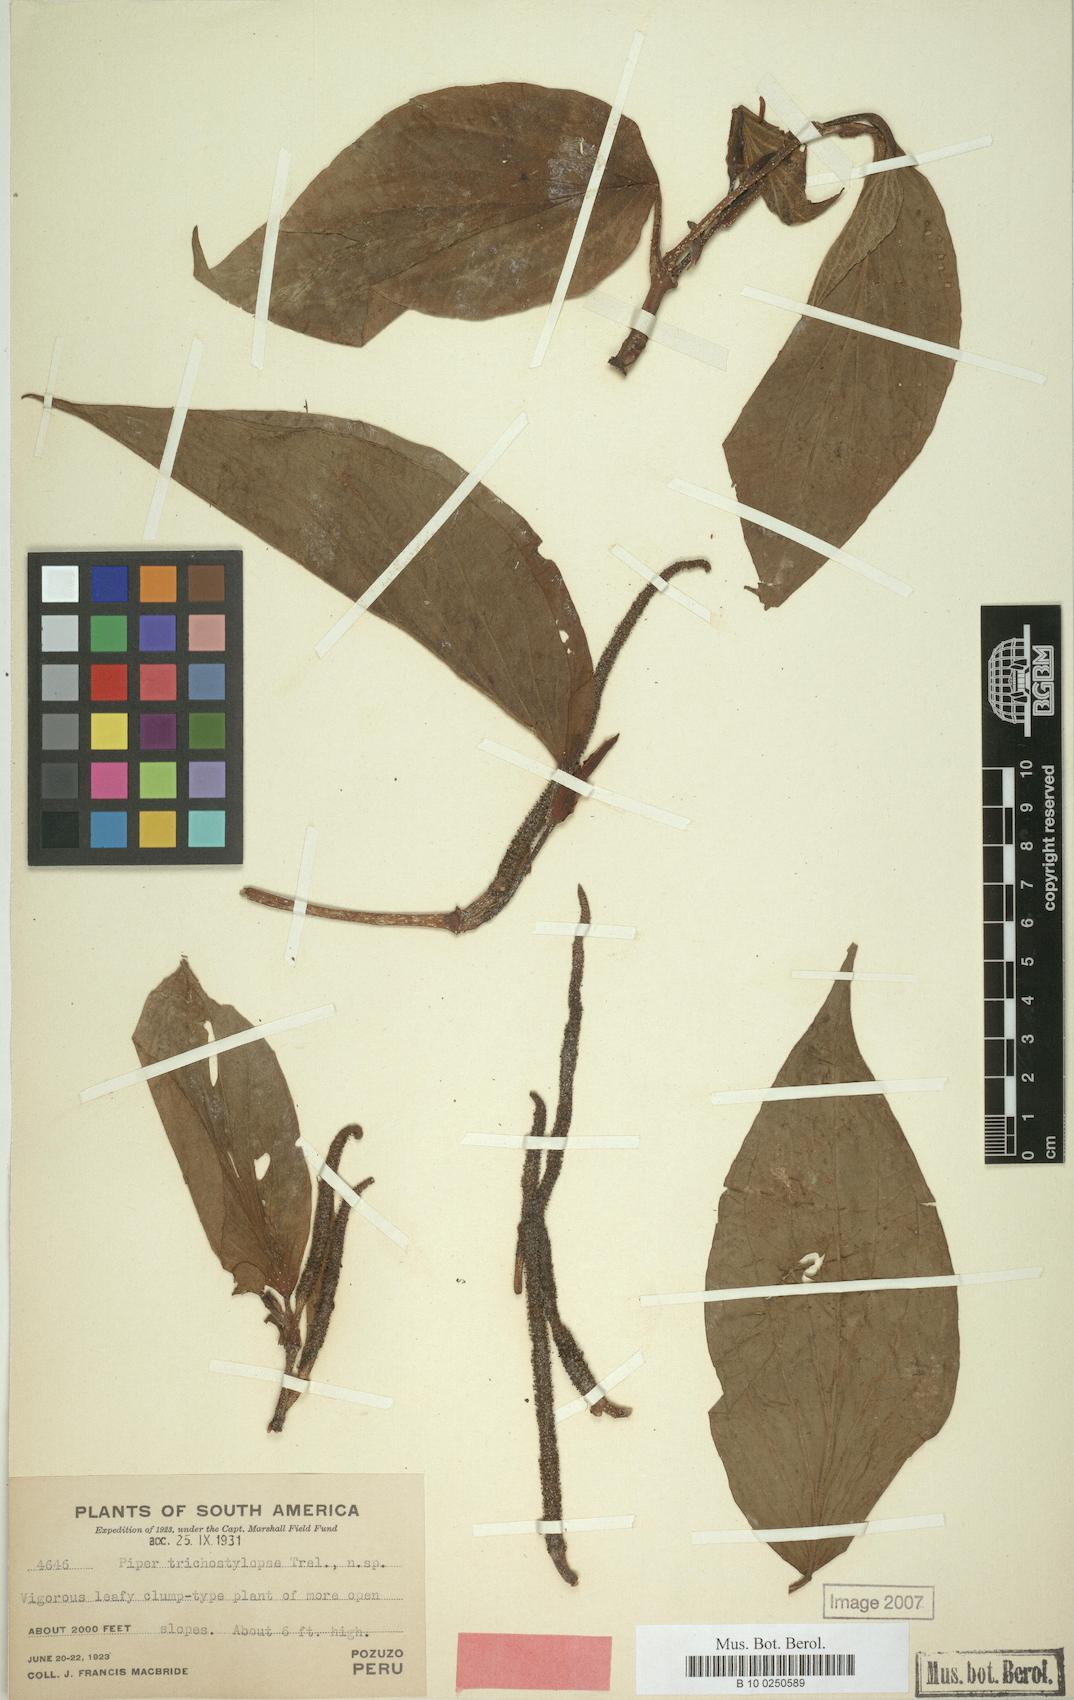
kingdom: Plantae
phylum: Tracheophyta
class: Magnoliopsida
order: Piperales
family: Piperaceae
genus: Piper
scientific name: Piper trichostylopse
